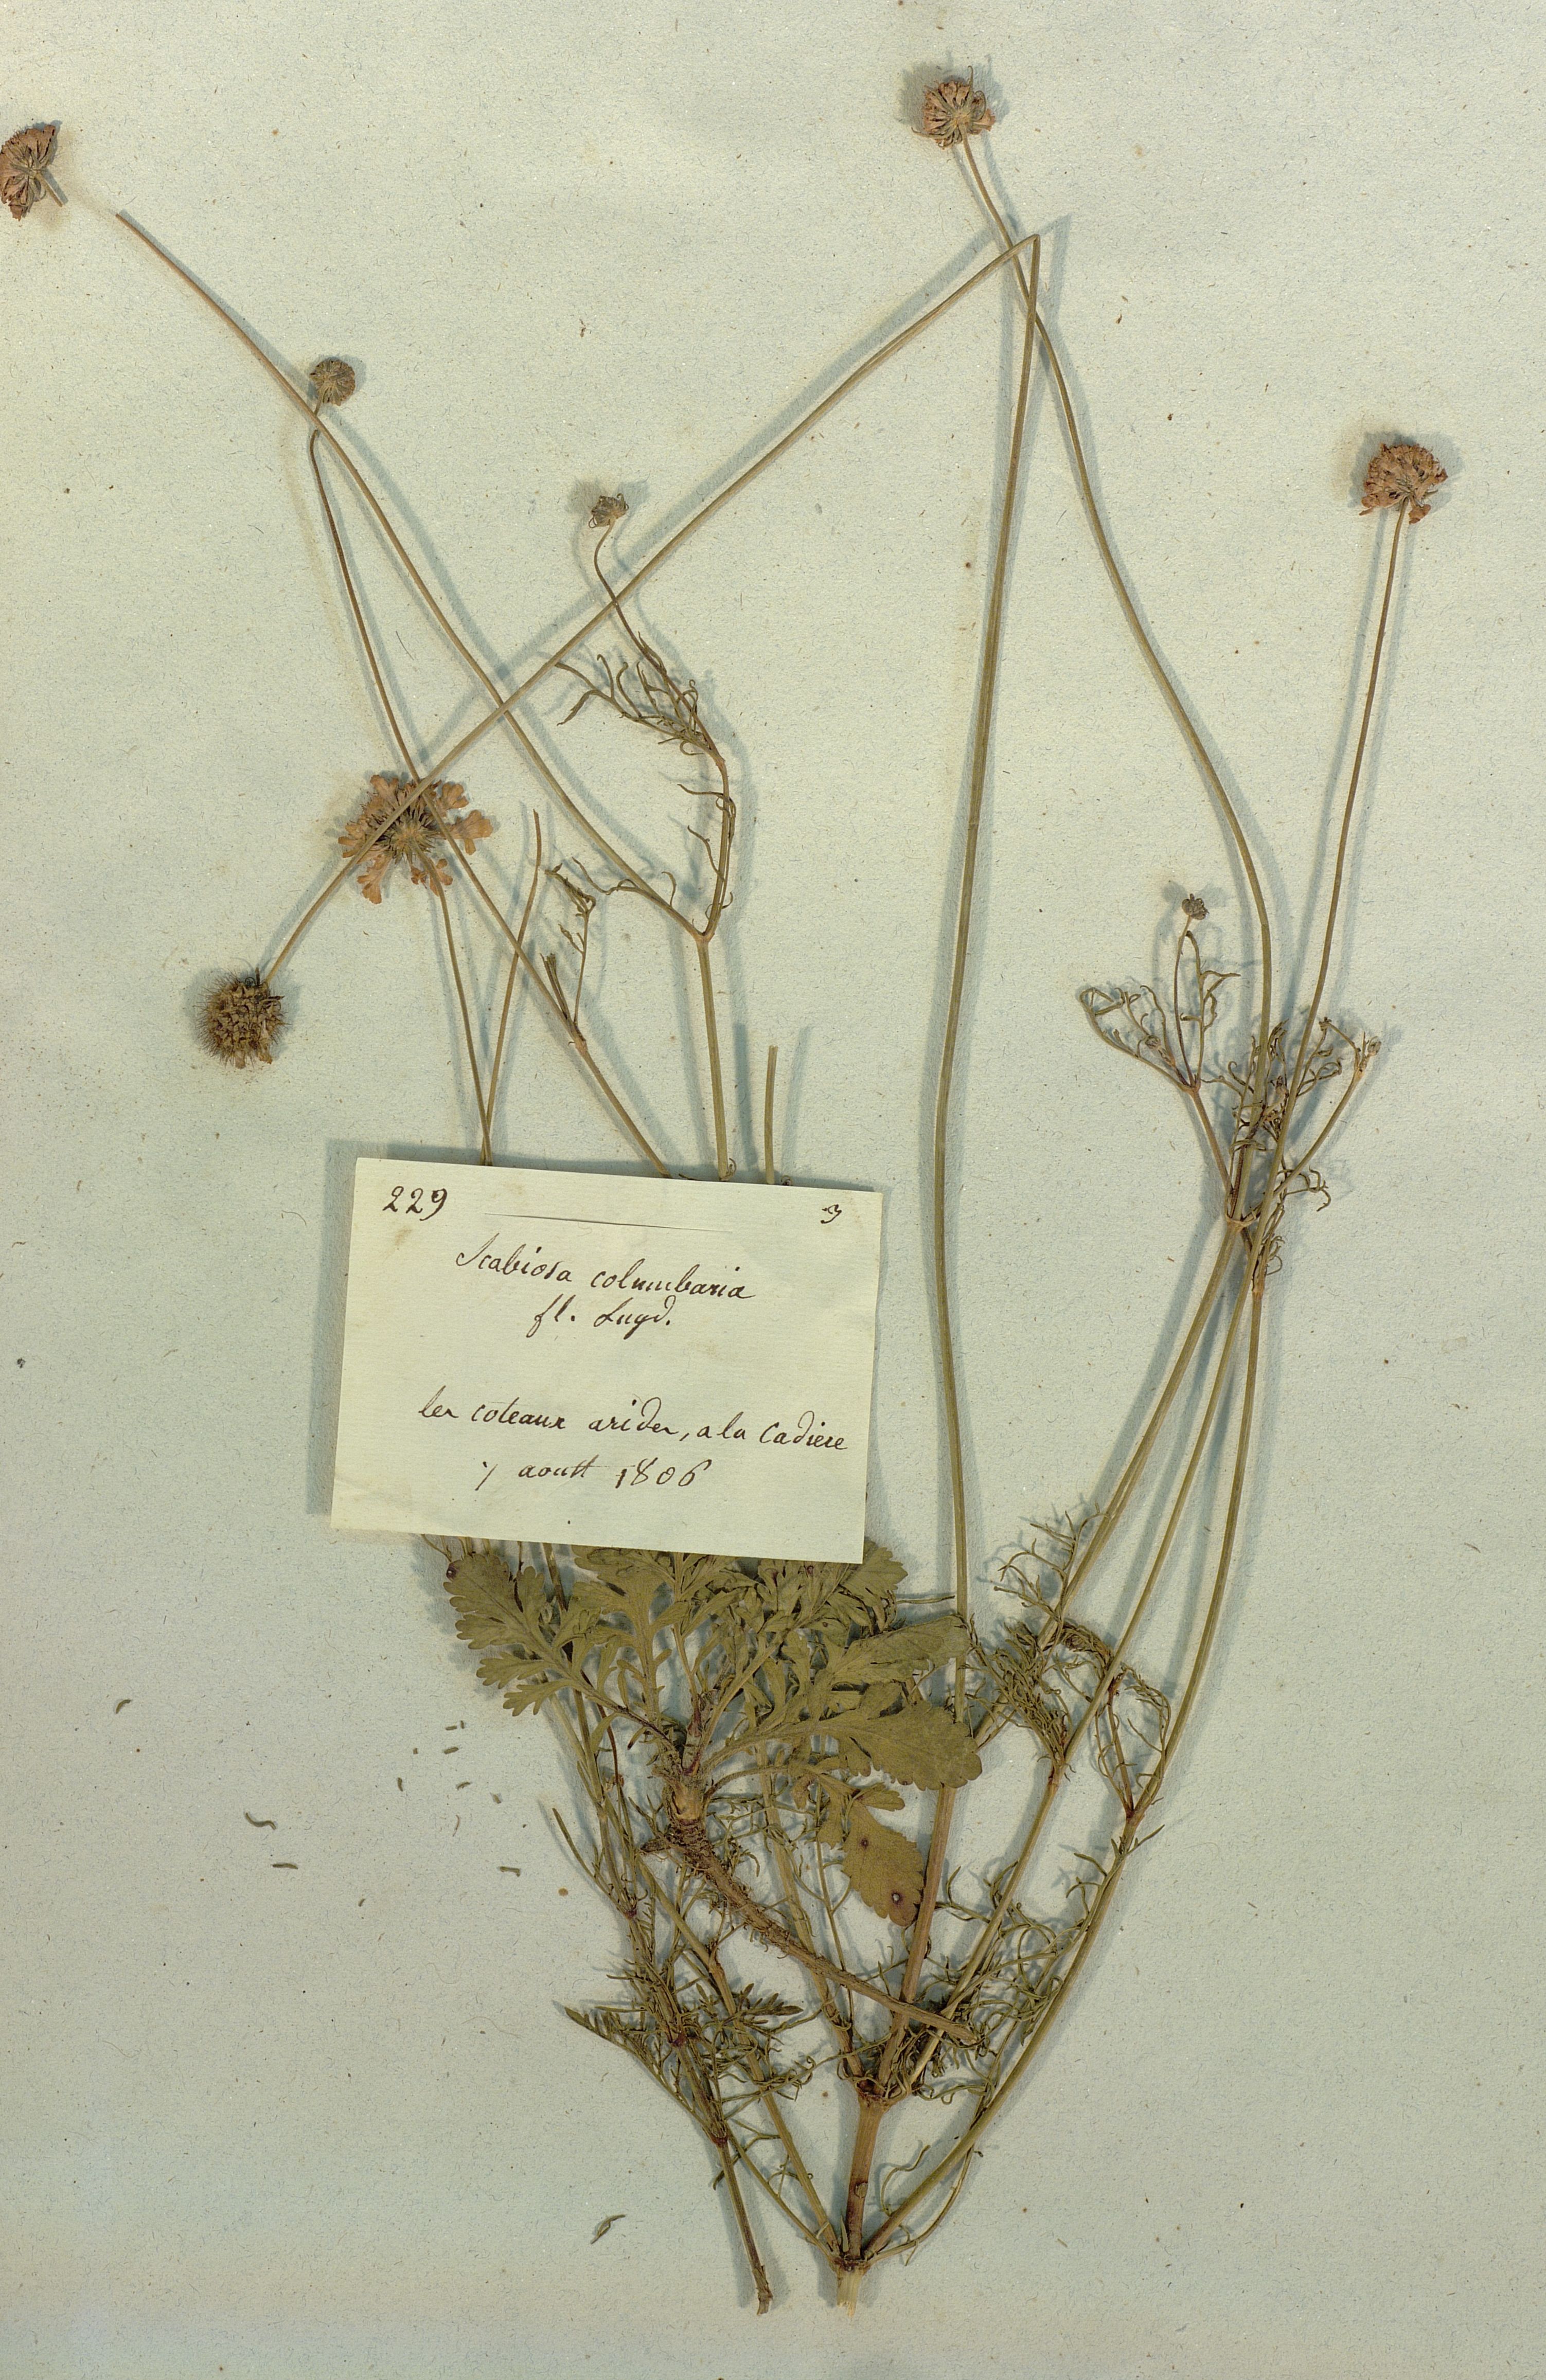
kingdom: Plantae
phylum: Tracheophyta
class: Magnoliopsida
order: Dipsacales
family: Caprifoliaceae
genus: Scabiosa
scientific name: Scabiosa columbaria
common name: Small scabious
